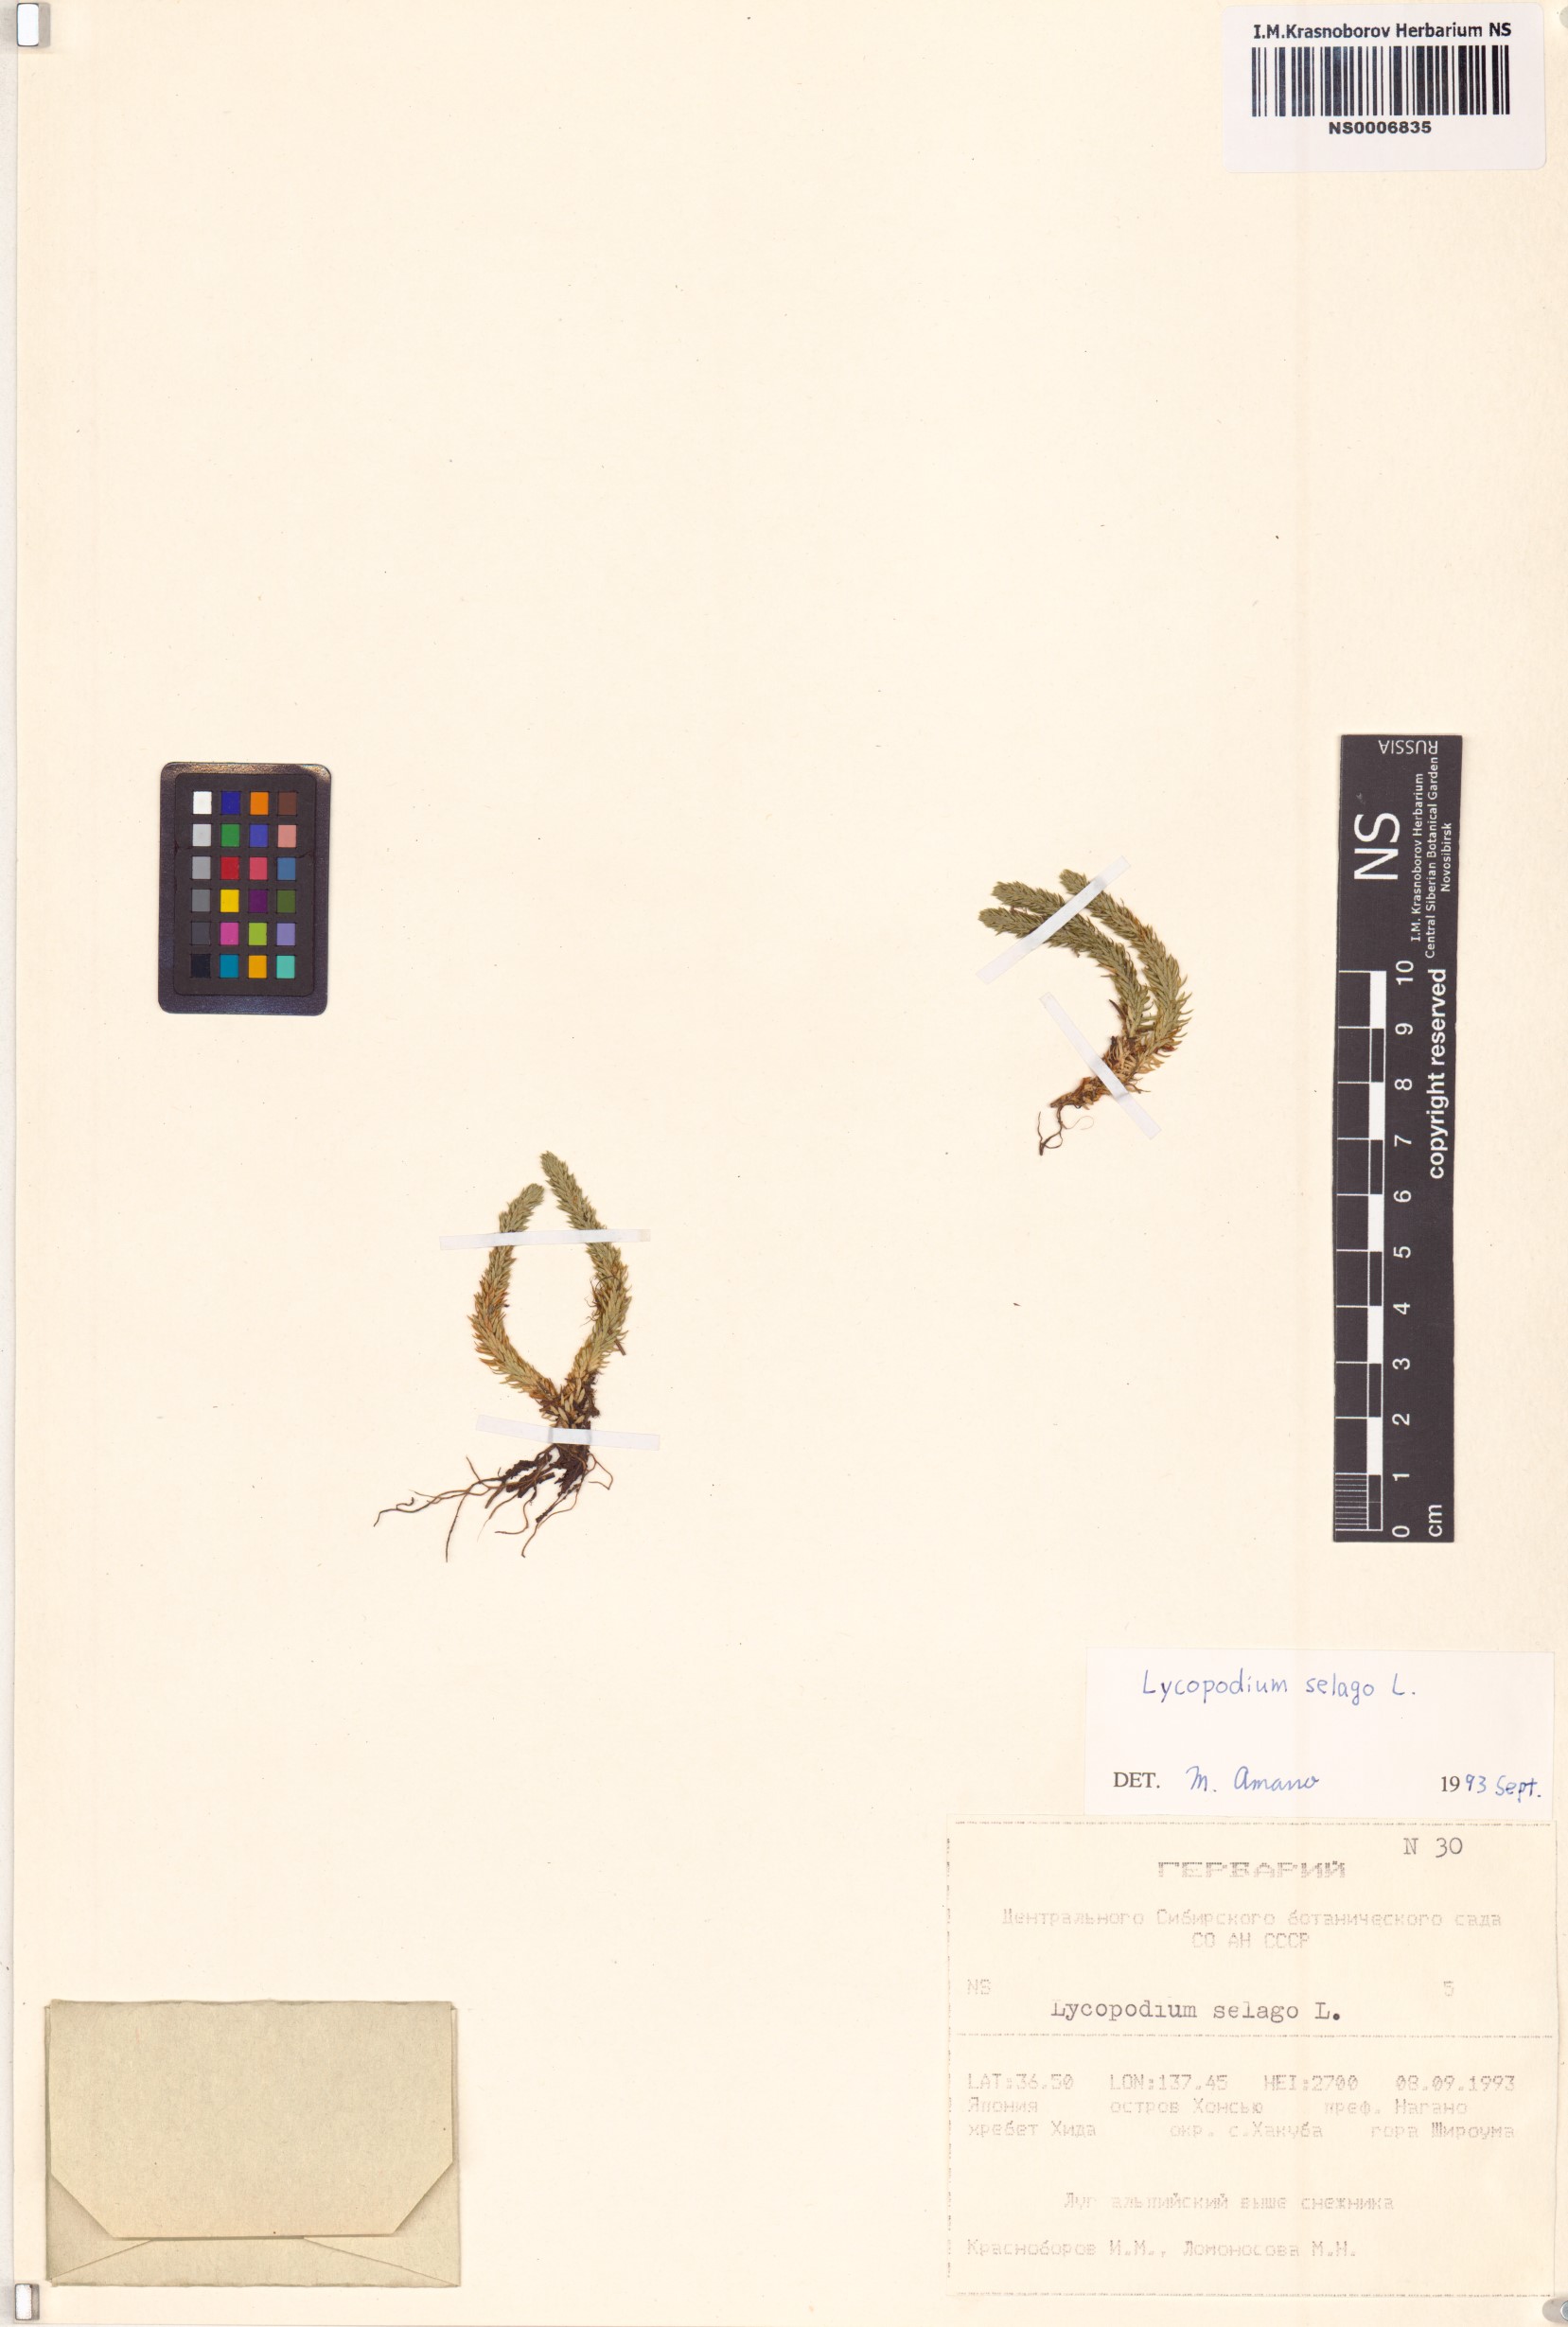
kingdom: Plantae
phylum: Tracheophyta
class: Lycopodiopsida
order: Lycopodiales
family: Lycopodiaceae
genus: Huperzia
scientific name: Huperzia selago
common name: Northern firmoss
